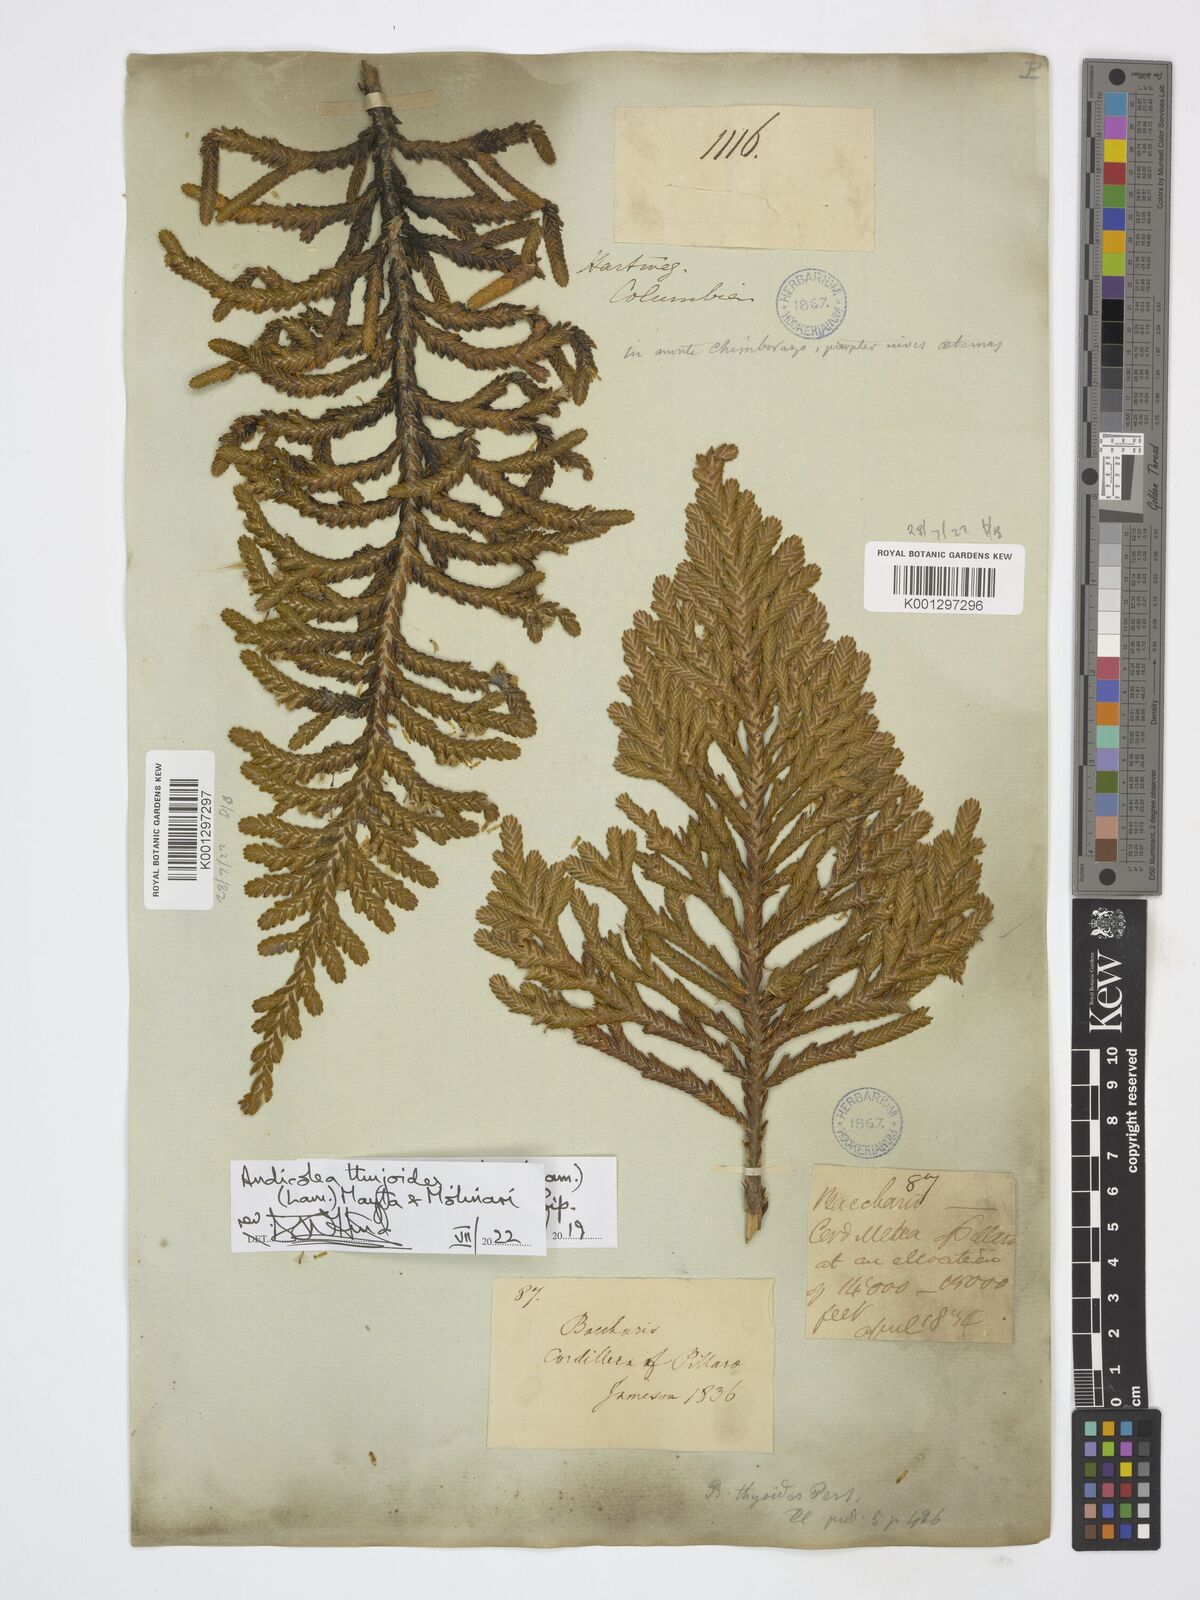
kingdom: Plantae
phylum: Tracheophyta
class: Magnoliopsida
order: Asterales
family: Asteraceae
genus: Andicolea
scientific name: Andicolea thuyoides
